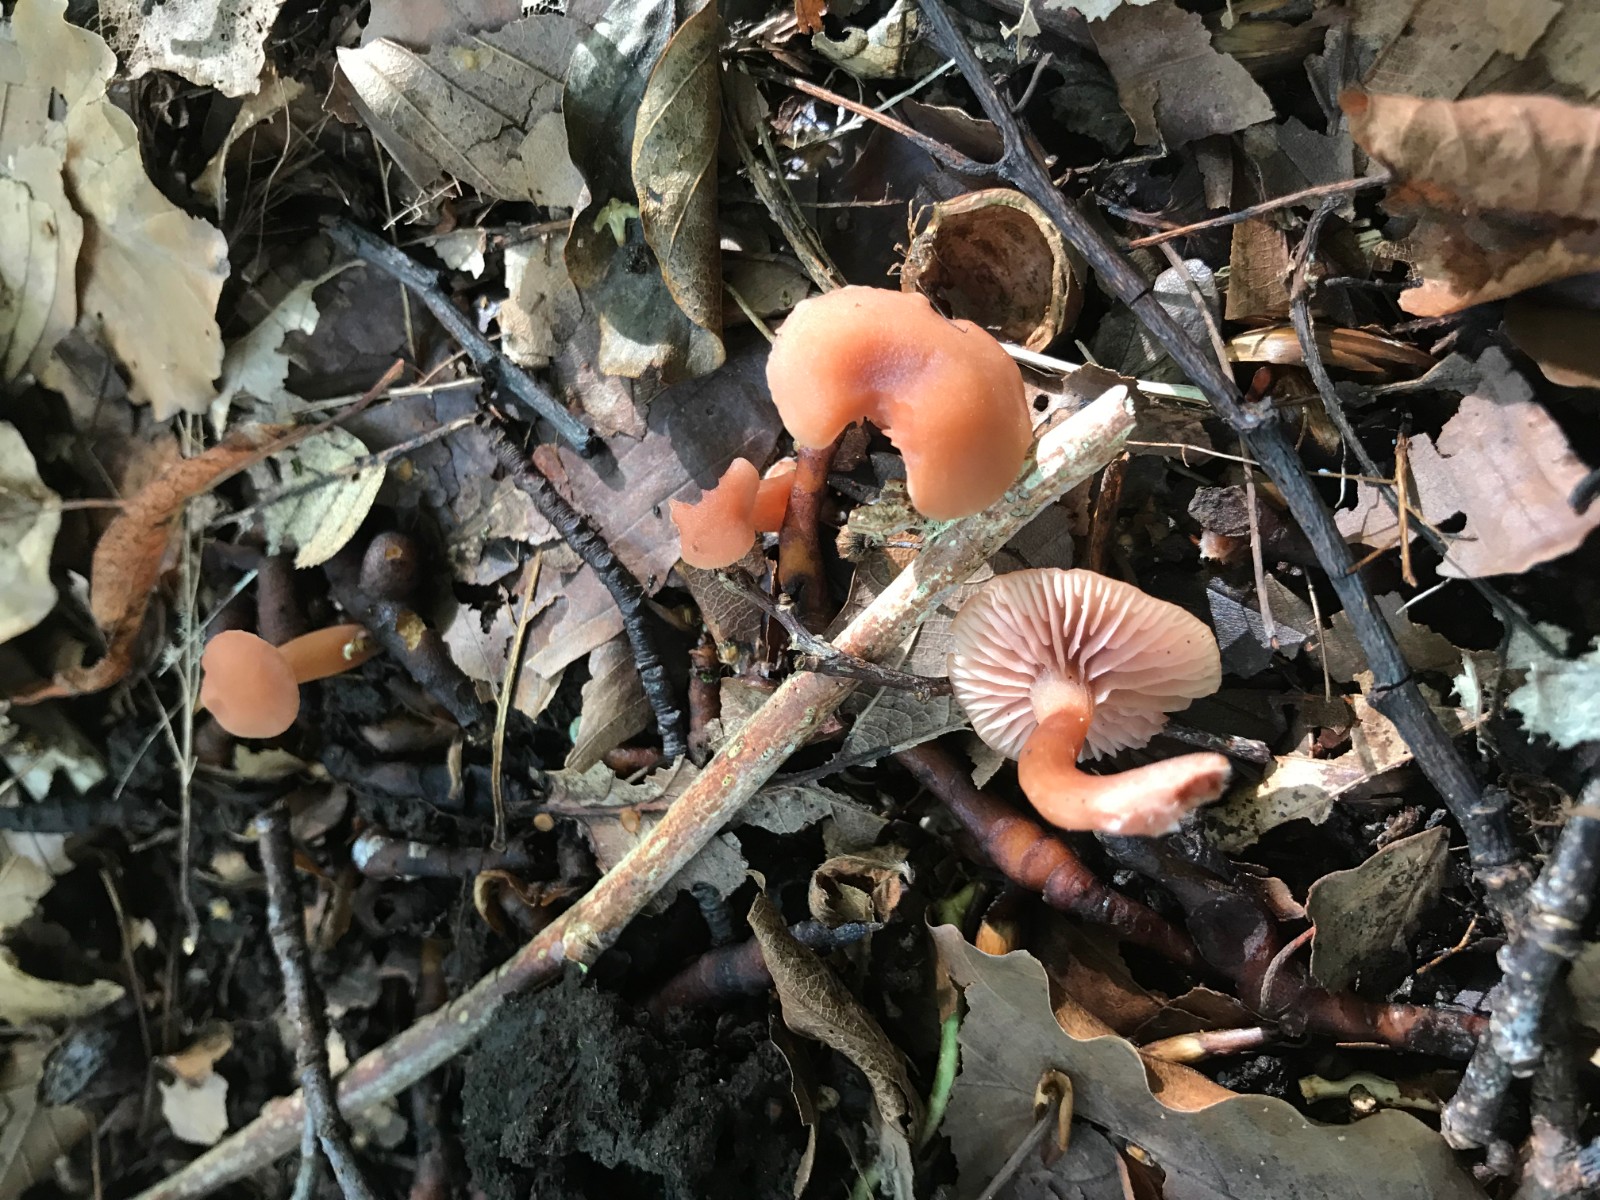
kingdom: Fungi
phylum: Basidiomycota
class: Agaricomycetes
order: Agaricales
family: Hydnangiaceae
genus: Laccaria
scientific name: Laccaria laccata
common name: rød ametysthat
